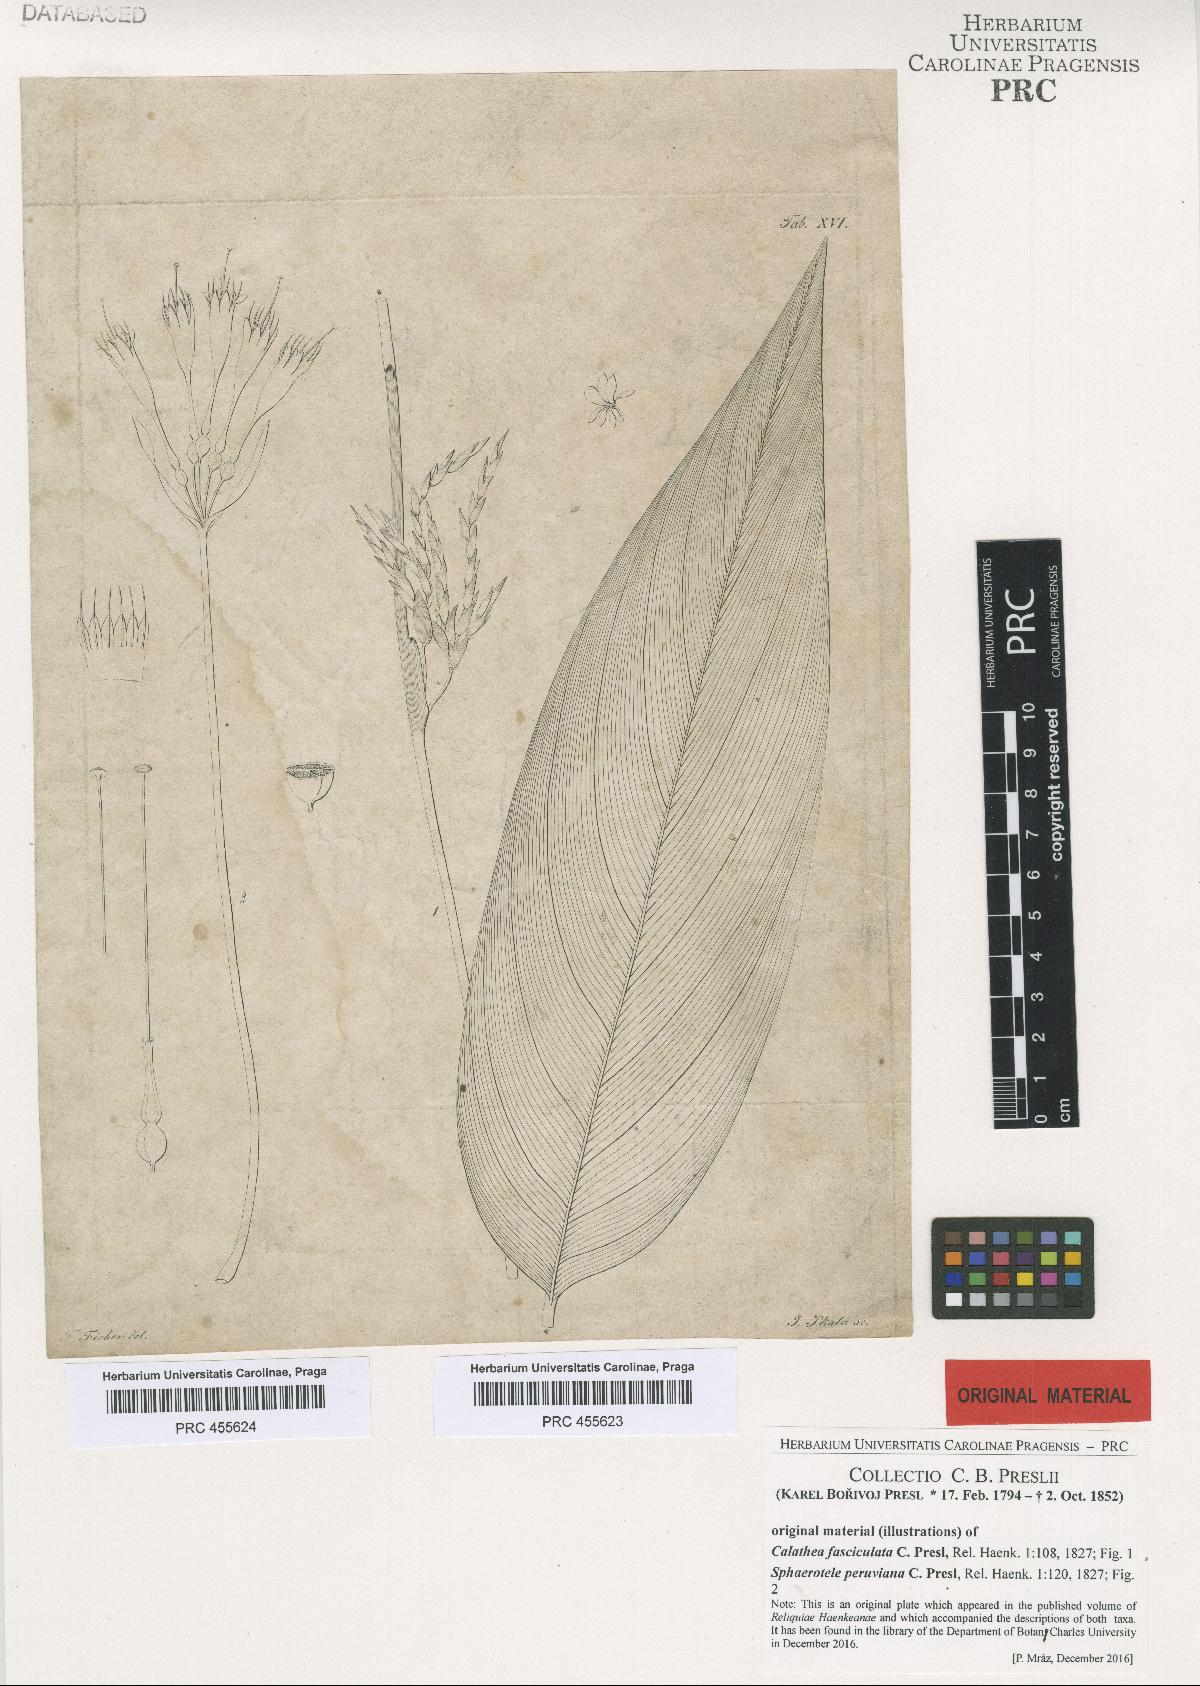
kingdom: Plantae
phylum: Tracheophyta
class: Liliopsida
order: Asparagales
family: Amaryllidaceae
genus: Stenomesson
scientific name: Stenomesson miniatum
